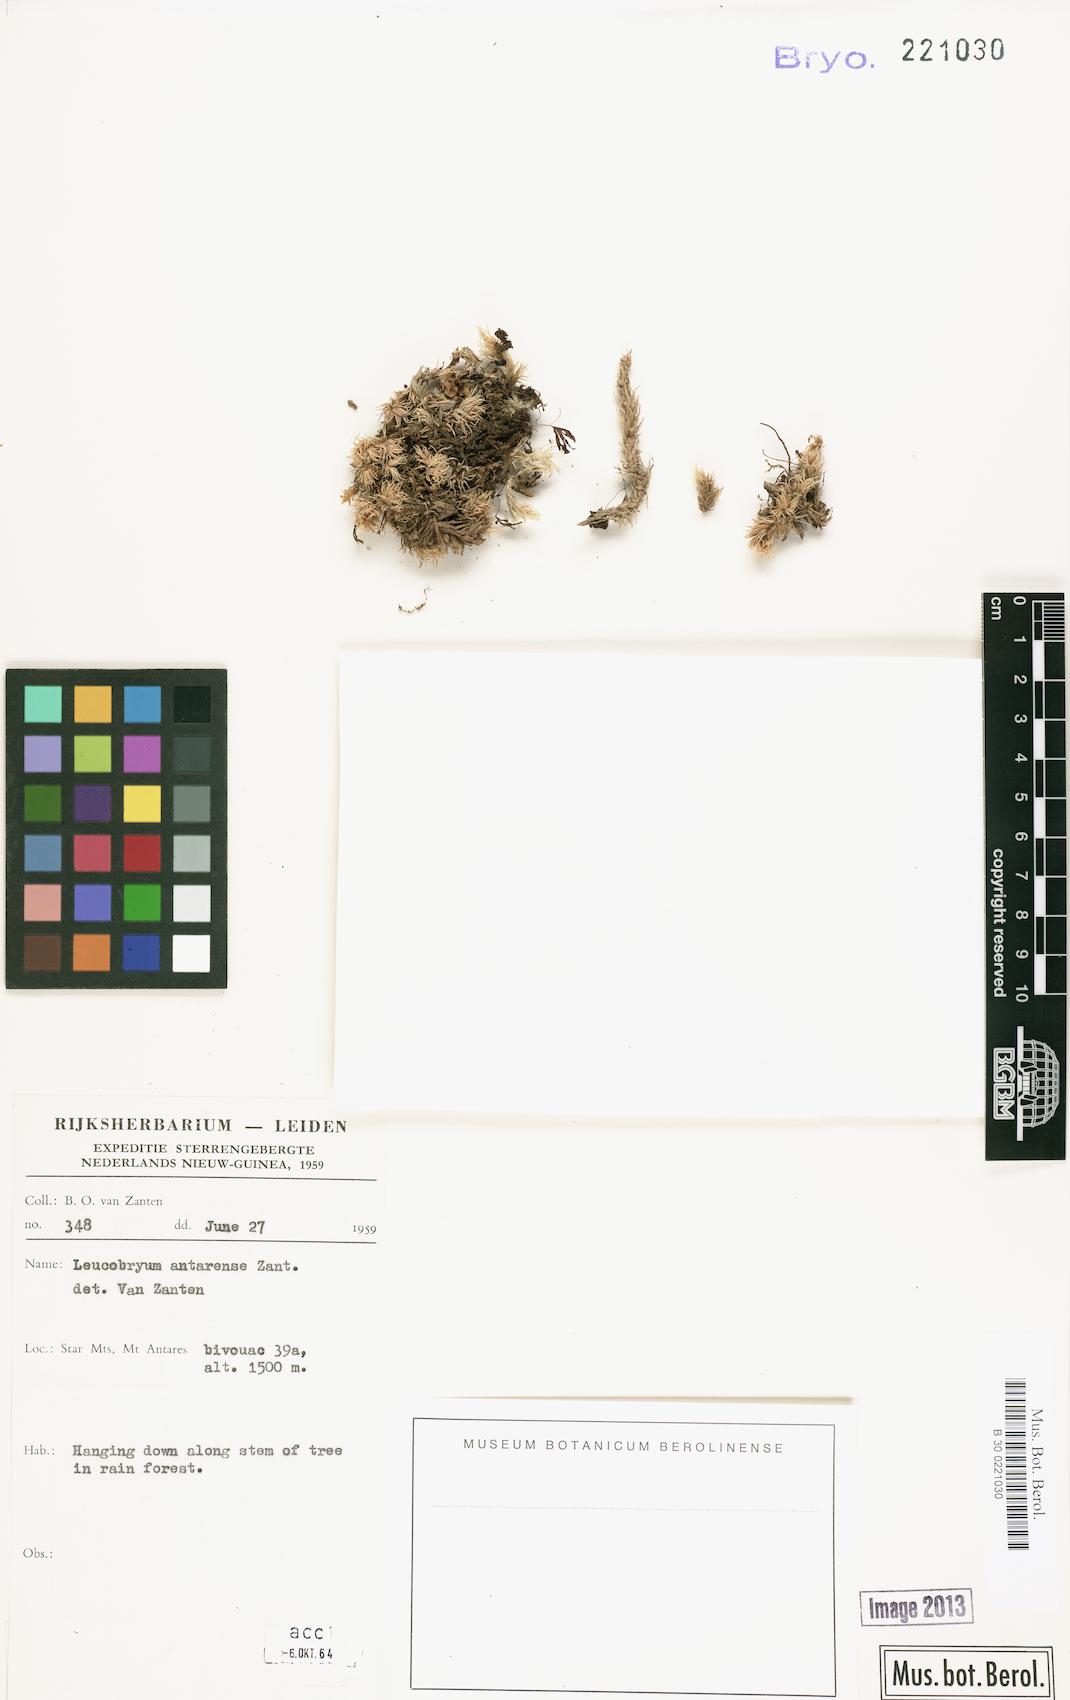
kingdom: Plantae
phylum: Bryophyta
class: Bryopsida
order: Dicranales
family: Leucobryaceae
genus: Leucobryum
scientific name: Leucobryum javense
